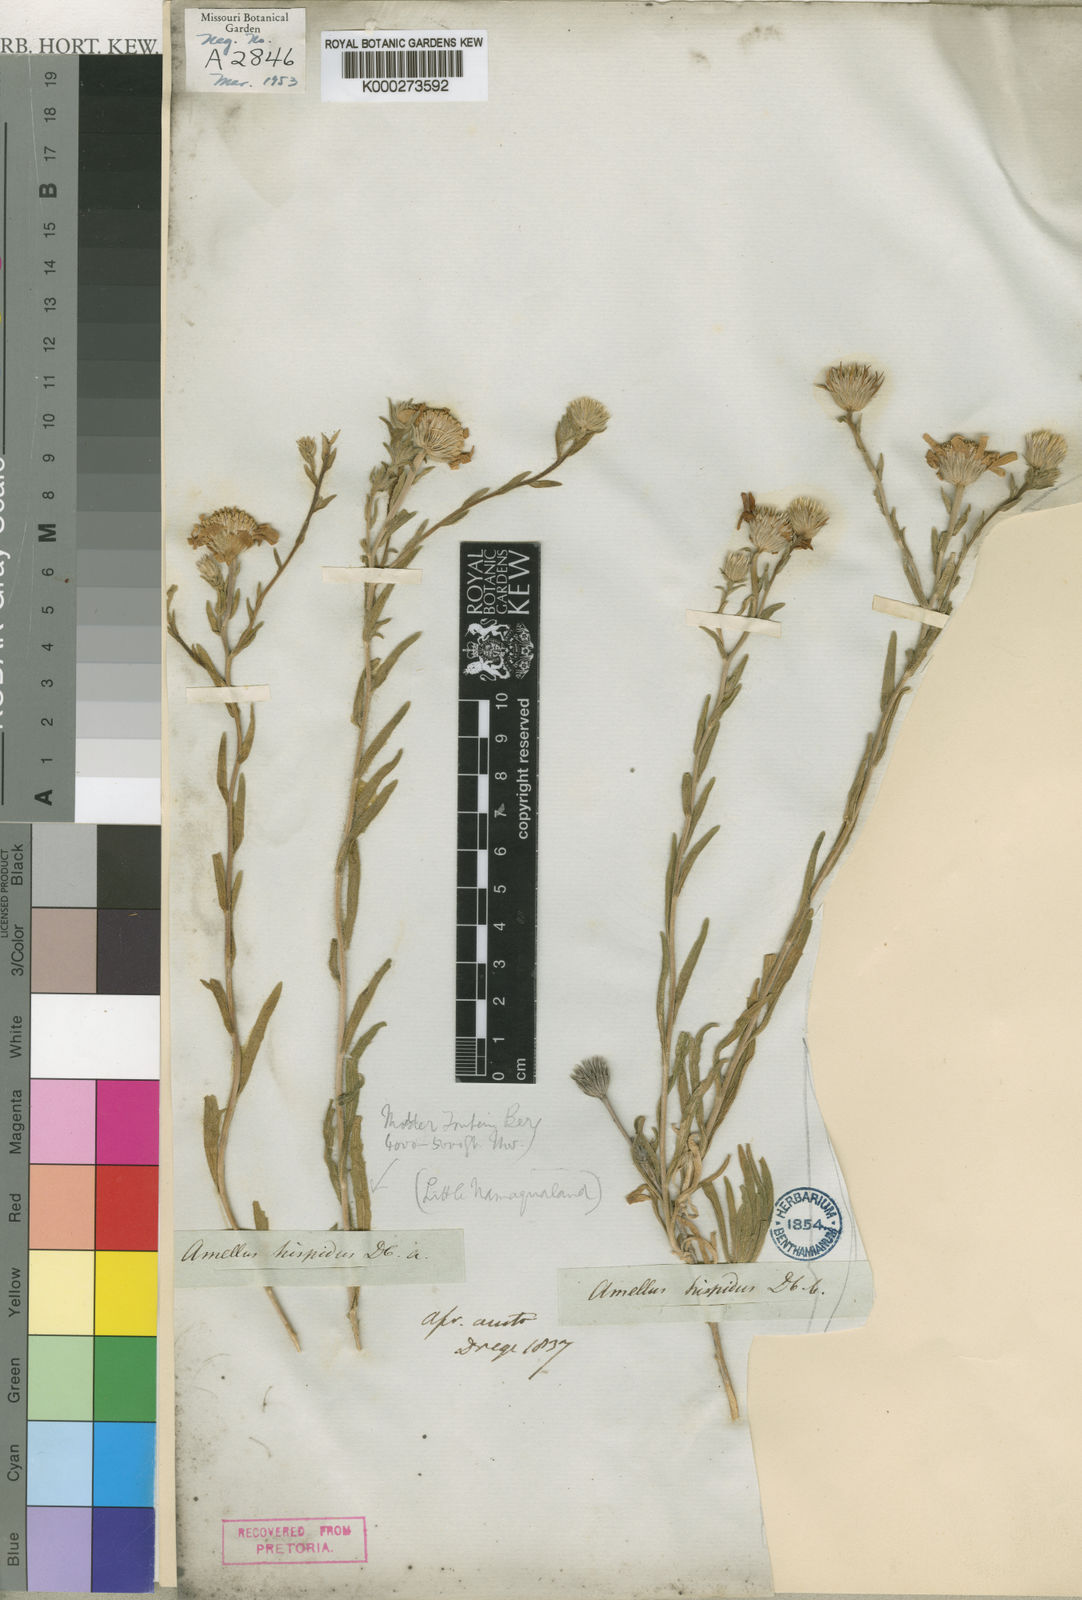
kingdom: Plantae
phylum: Tracheophyta
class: Magnoliopsida
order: Asterales
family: Asteraceae
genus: Amellus
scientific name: Amellus alternifolius
